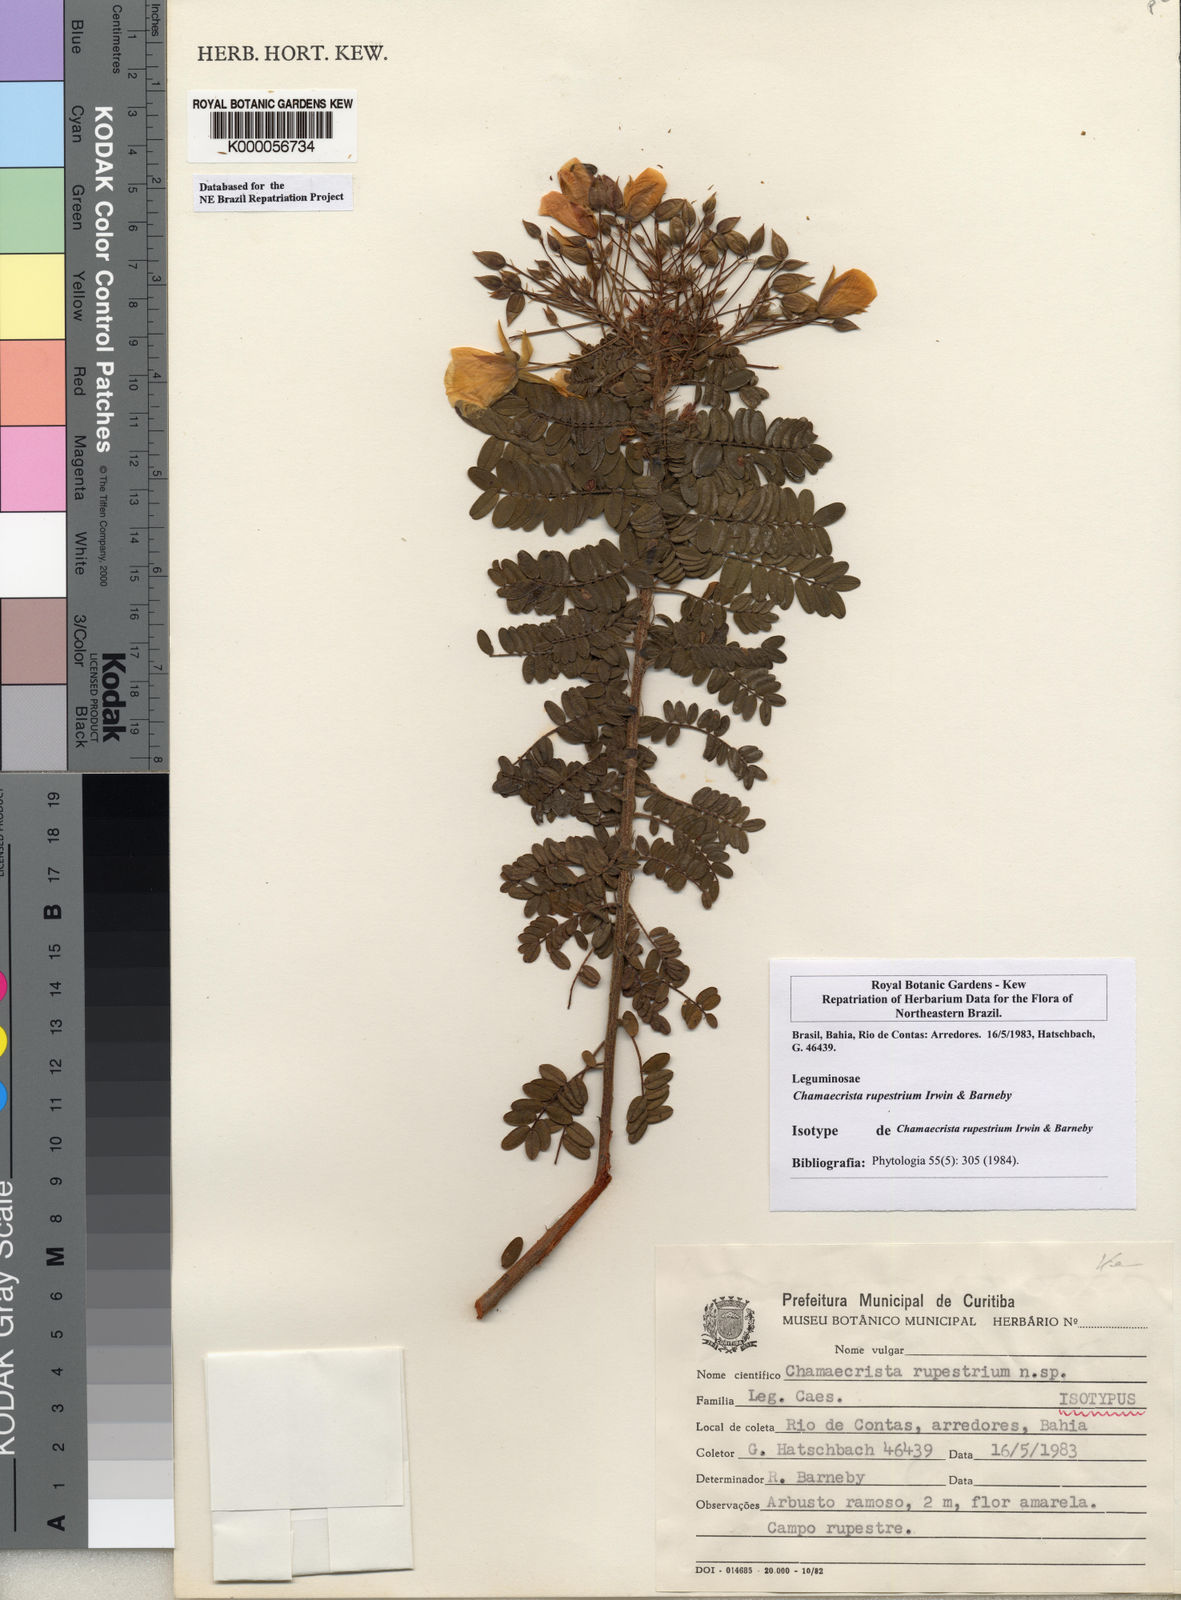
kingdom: Plantae
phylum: Tracheophyta
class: Magnoliopsida
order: Fabales
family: Fabaceae
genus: Chamaecrista
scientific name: Chamaecrista rupestrium
